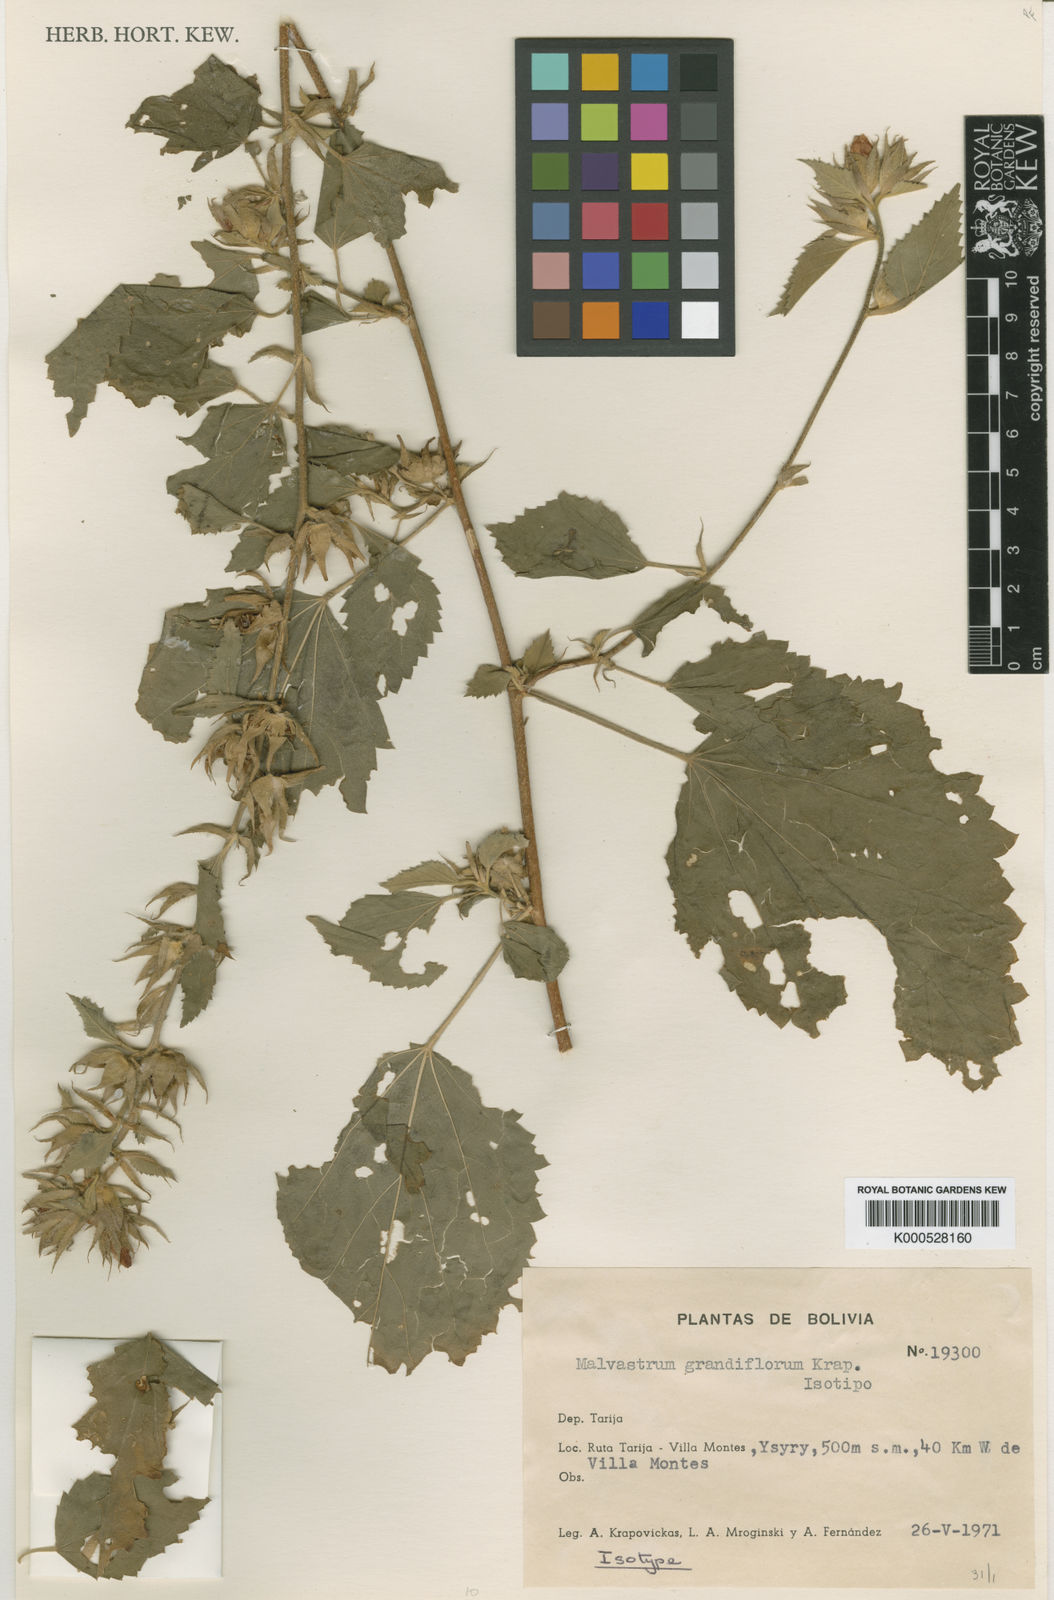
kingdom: Plantae
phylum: Tracheophyta
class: Magnoliopsida
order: Malvales
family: Malvaceae
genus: Malvastrum
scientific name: Malvastrum grandiflorum
